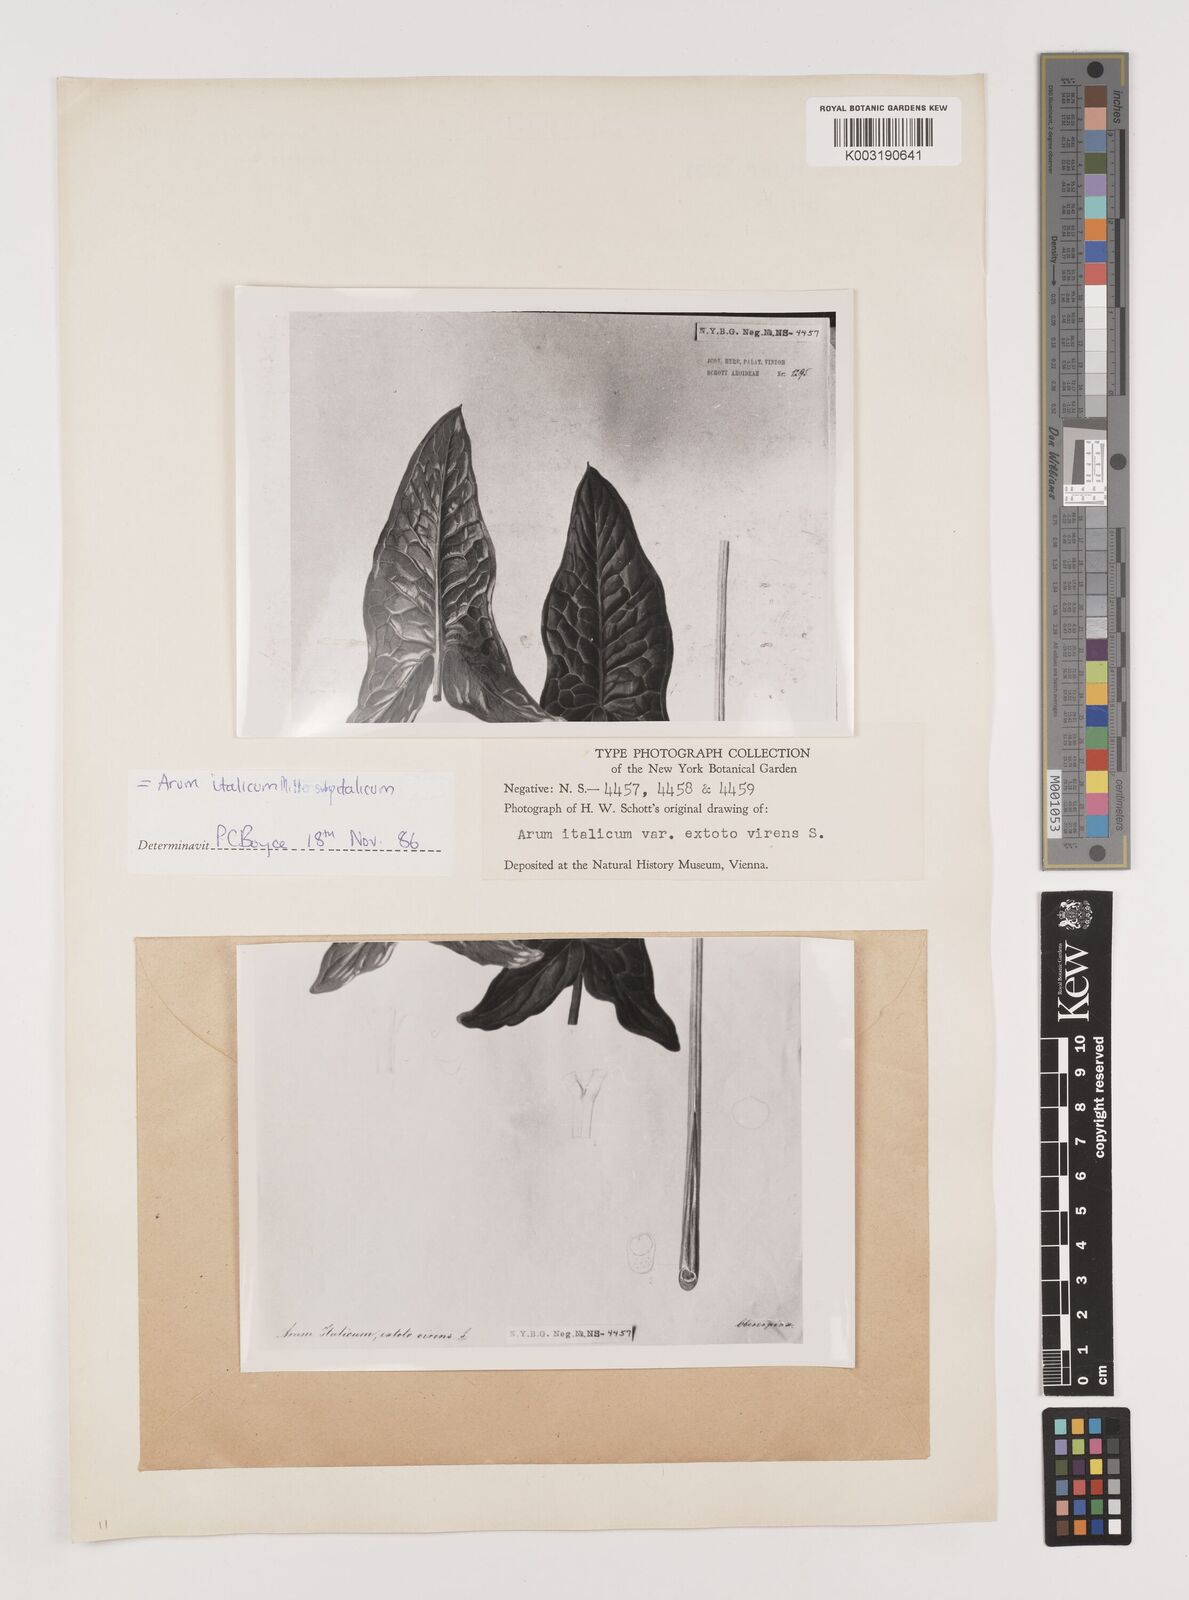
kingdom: Plantae
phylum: Tracheophyta
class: Liliopsida
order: Alismatales
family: Araceae
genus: Arum
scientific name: Arum italicum
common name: Italian lords-and-ladies
